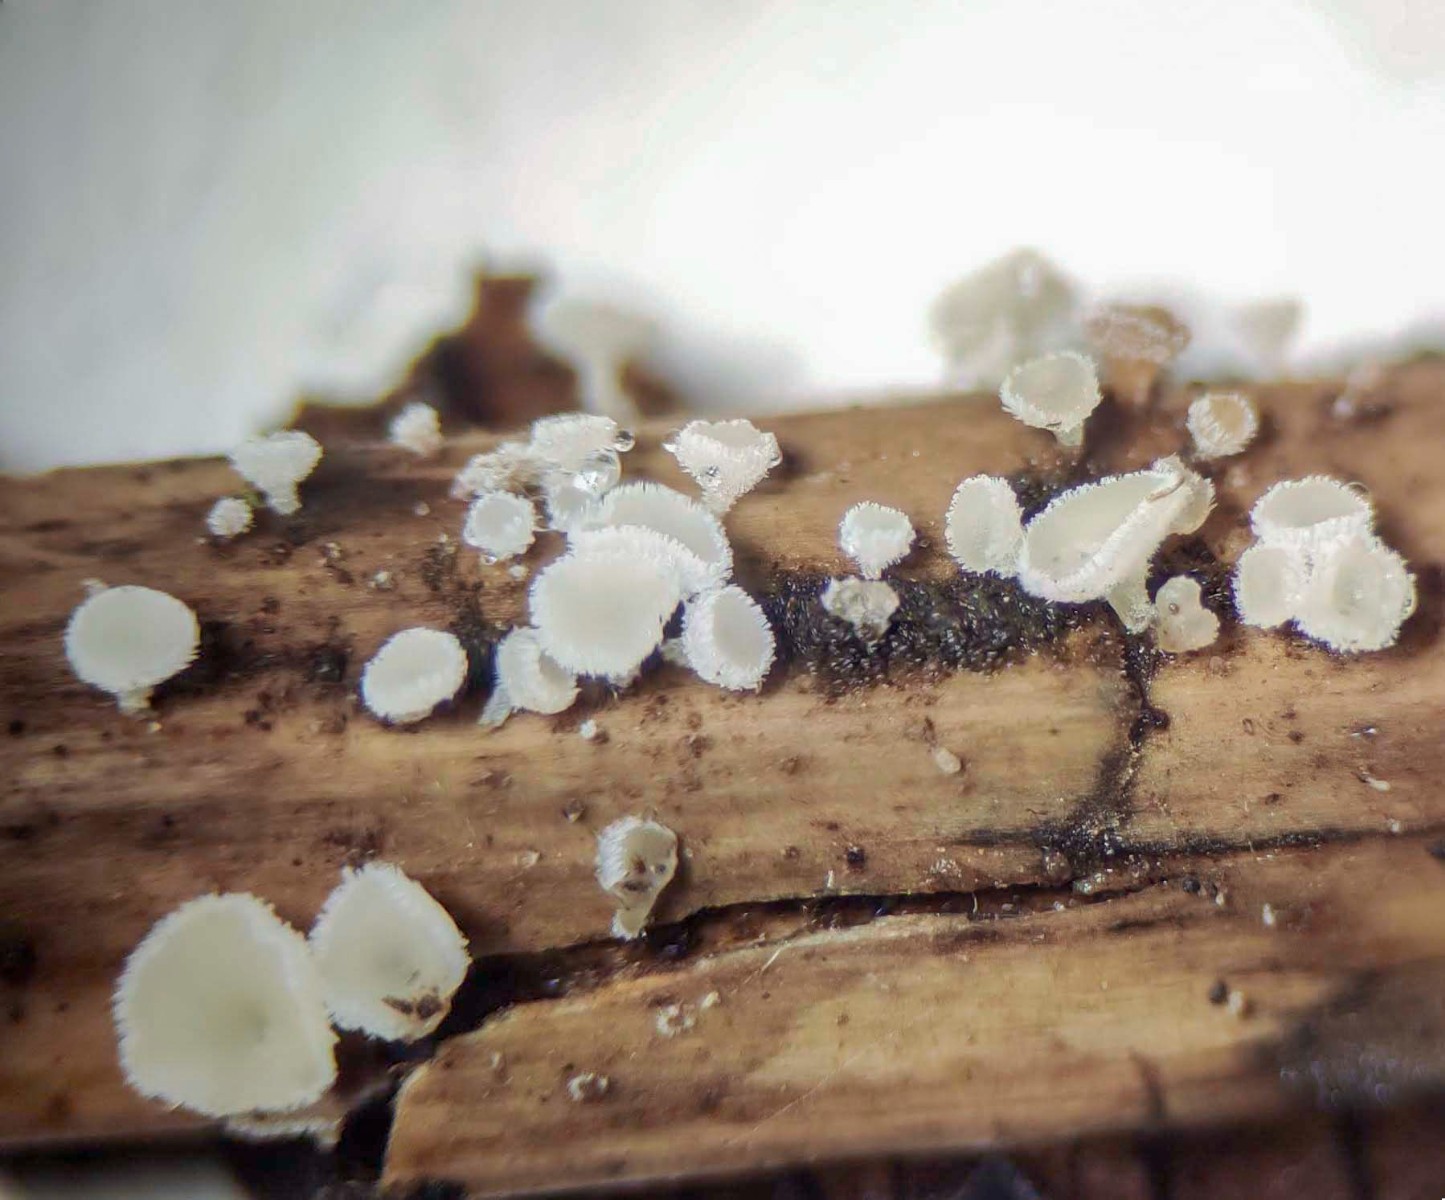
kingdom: Fungi
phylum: Ascomycota
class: Leotiomycetes
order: Helotiales
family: Lachnaceae
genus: Lachnum
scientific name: Lachnum nudipes
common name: mjødurt-frynseskive
